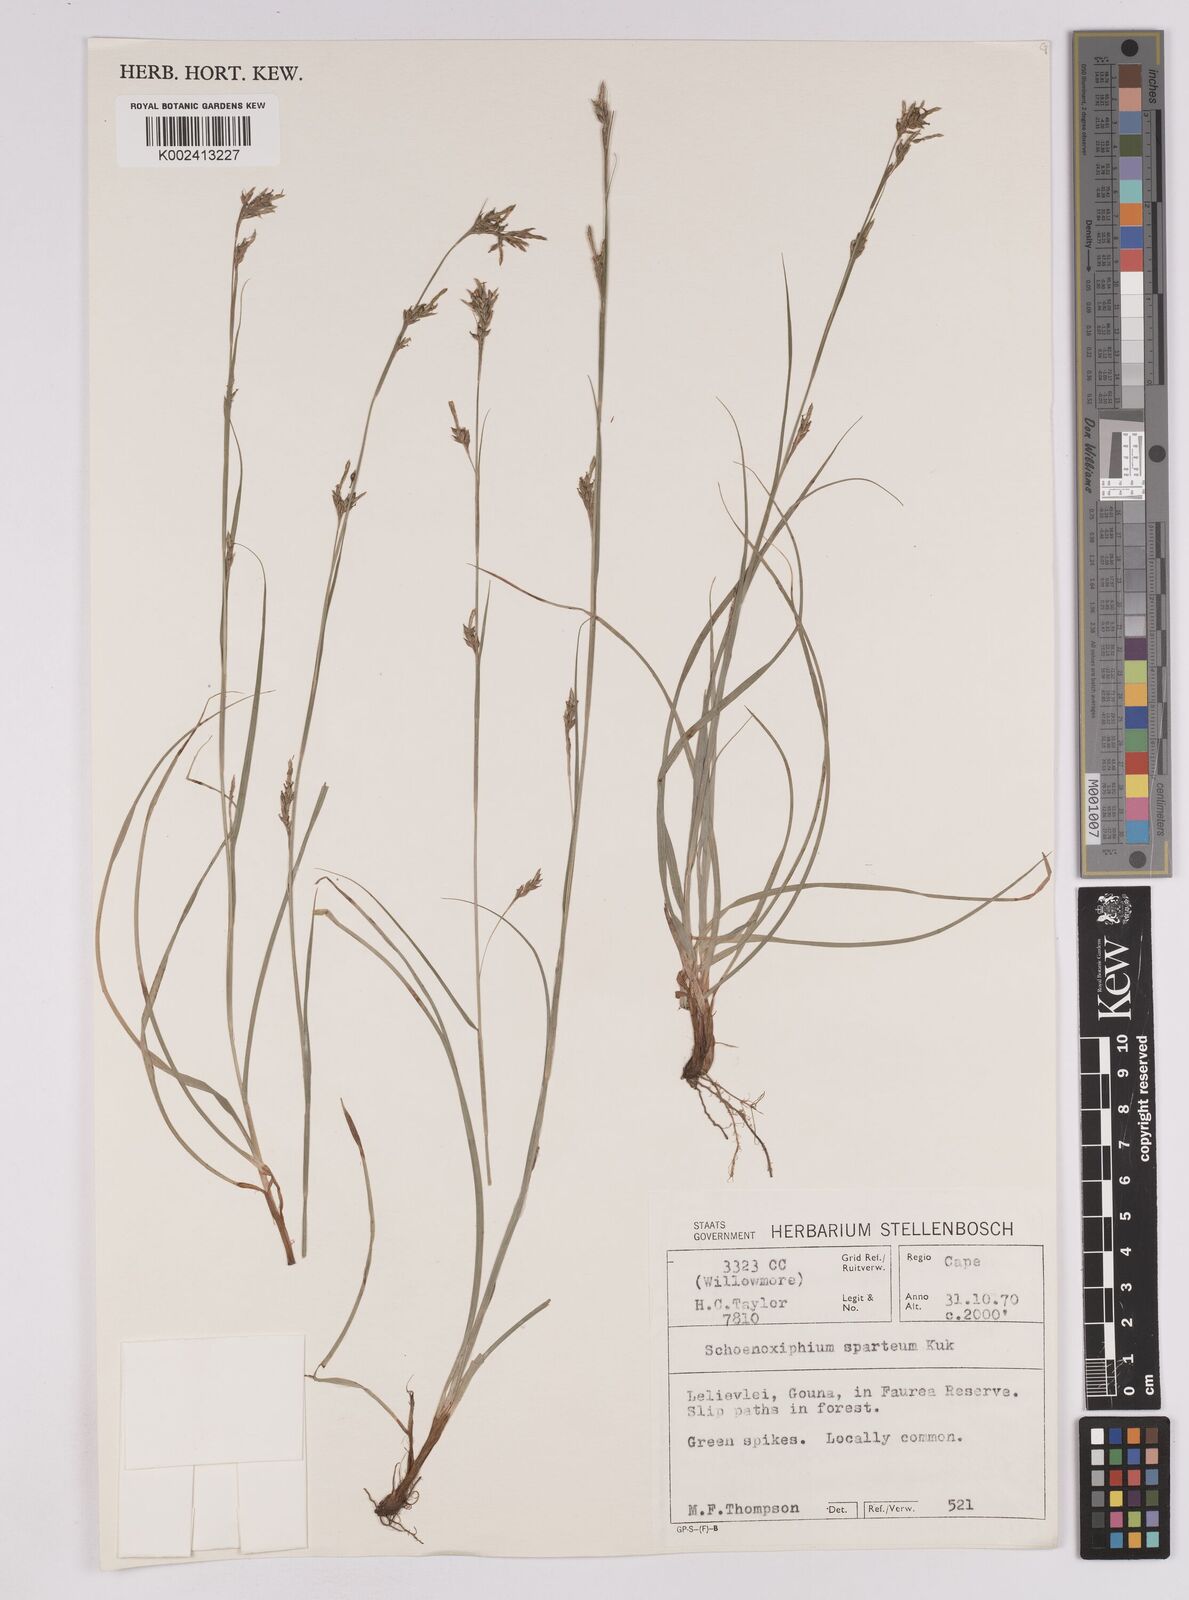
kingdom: Plantae
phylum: Tracheophyta
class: Liliopsida
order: Poales
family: Cyperaceae
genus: Carex
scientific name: Carex schimperiana
